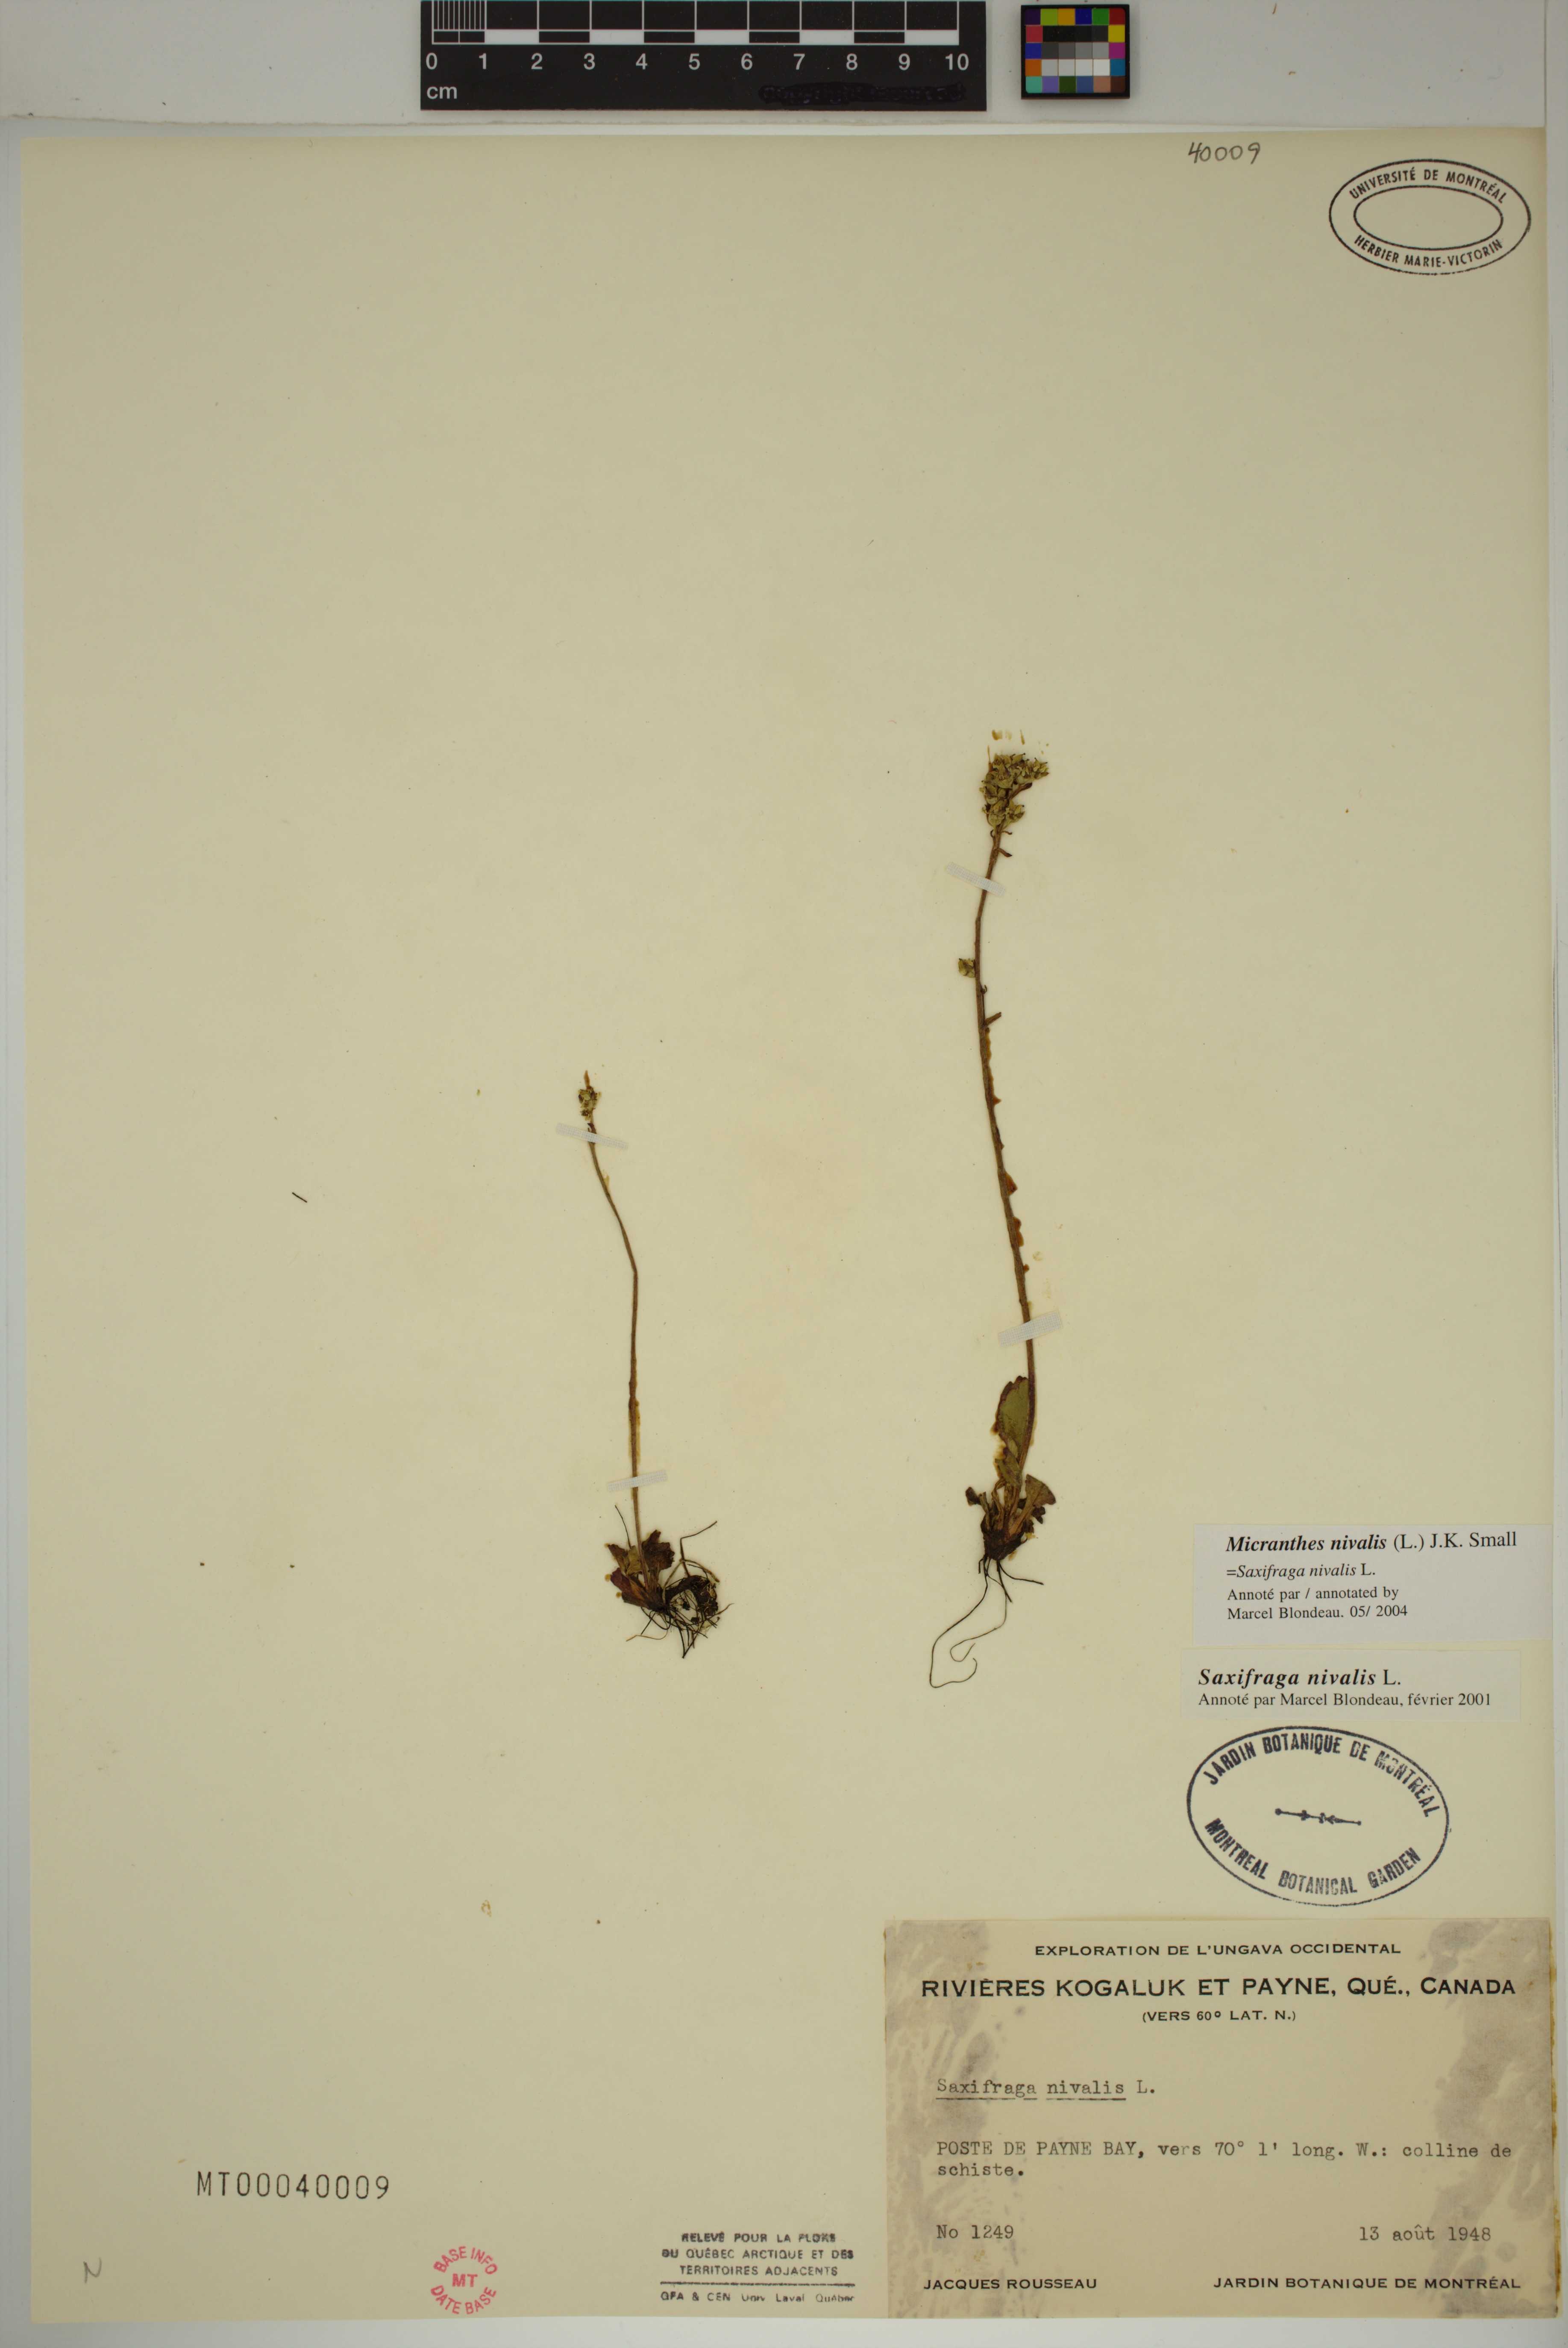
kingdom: Plantae
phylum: Tracheophyta
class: Magnoliopsida
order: Saxifragales
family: Saxifragaceae
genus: Micranthes
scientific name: Micranthes nivalis
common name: Alpine saxifrage
